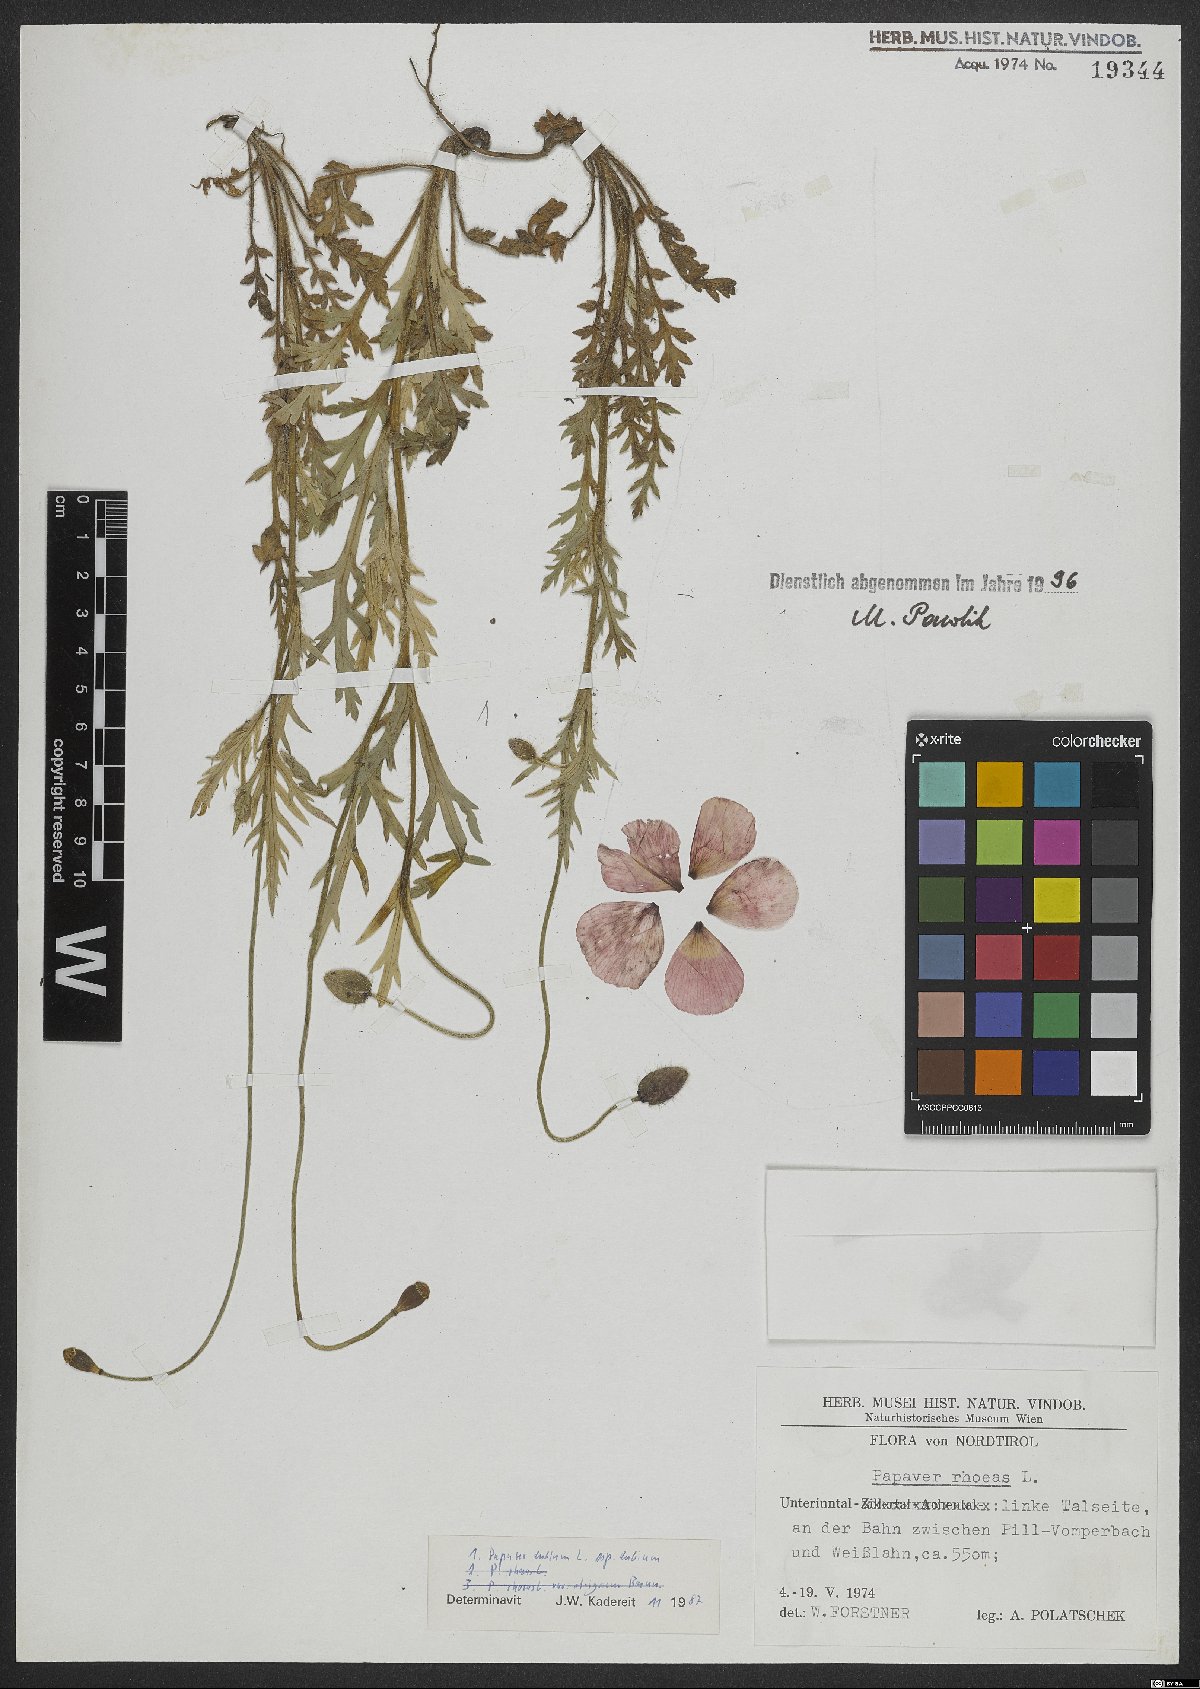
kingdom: Plantae
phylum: Tracheophyta
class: Magnoliopsida
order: Ranunculales
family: Papaveraceae
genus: Papaver
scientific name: Papaver dubium
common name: Long-headed poppy
